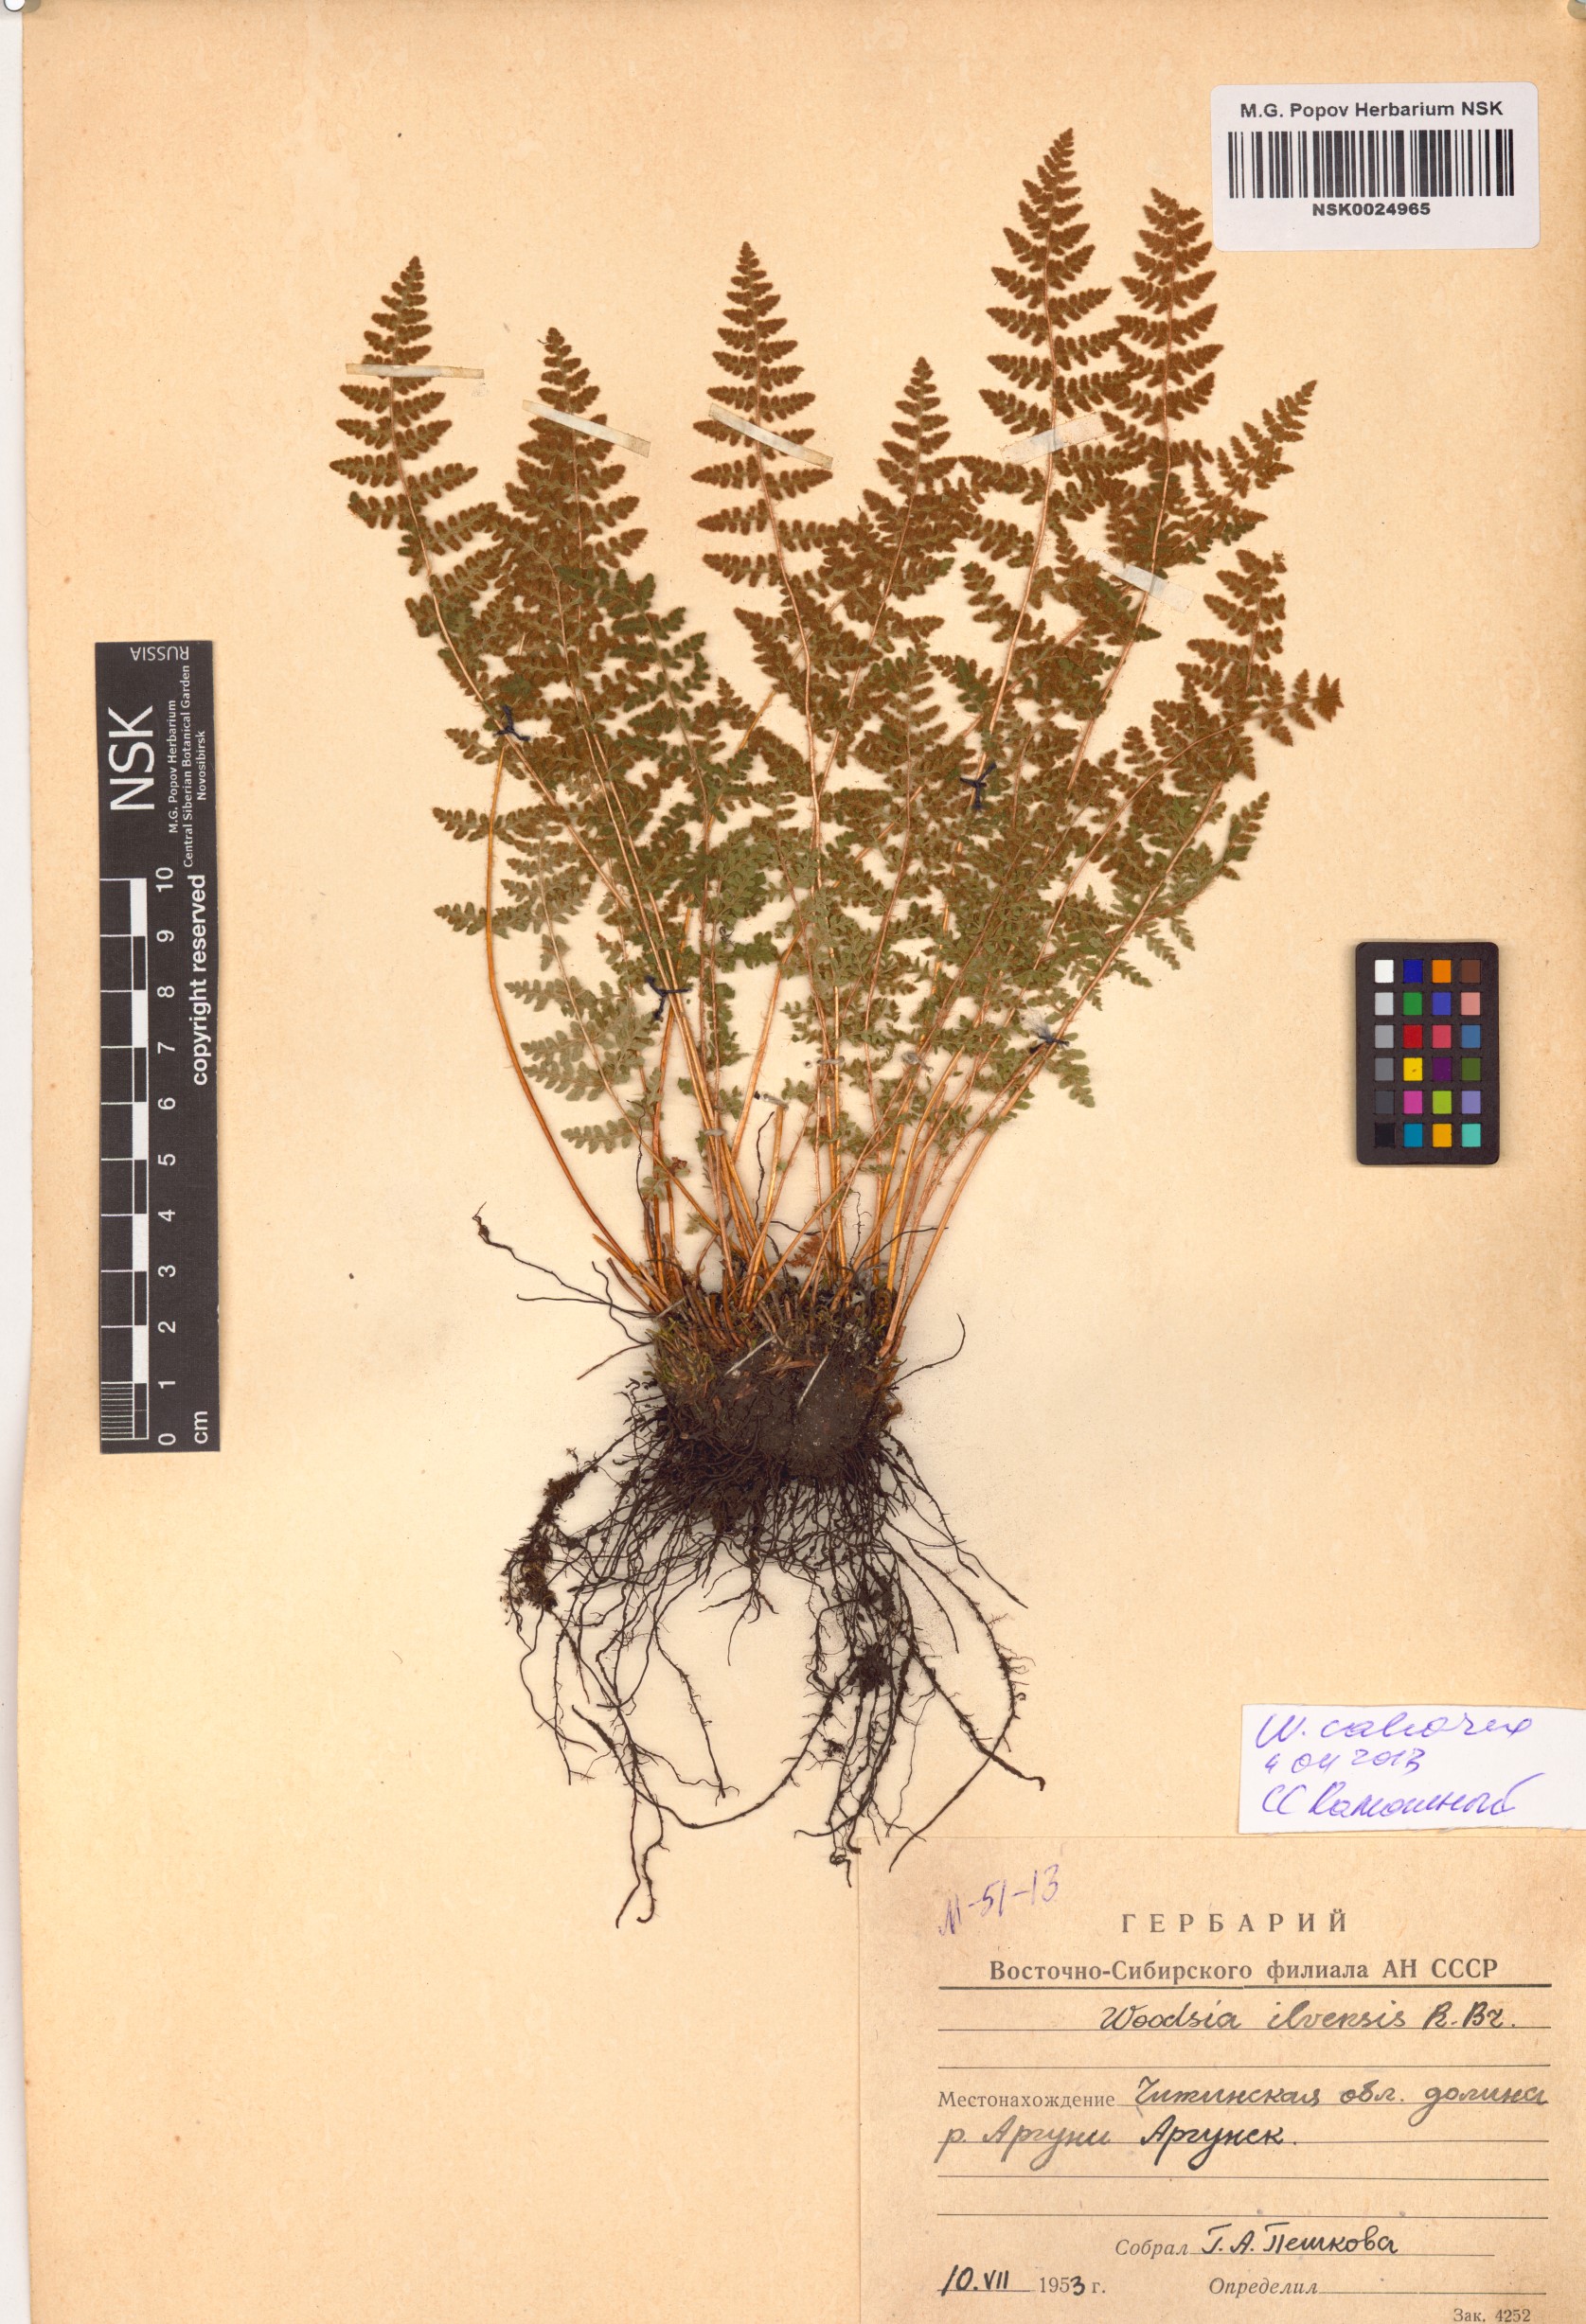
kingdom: Plantae
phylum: Tracheophyta
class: Polypodiopsida
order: Polypodiales
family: Woodsiaceae
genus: Woodsia
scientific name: Woodsia calcarea
